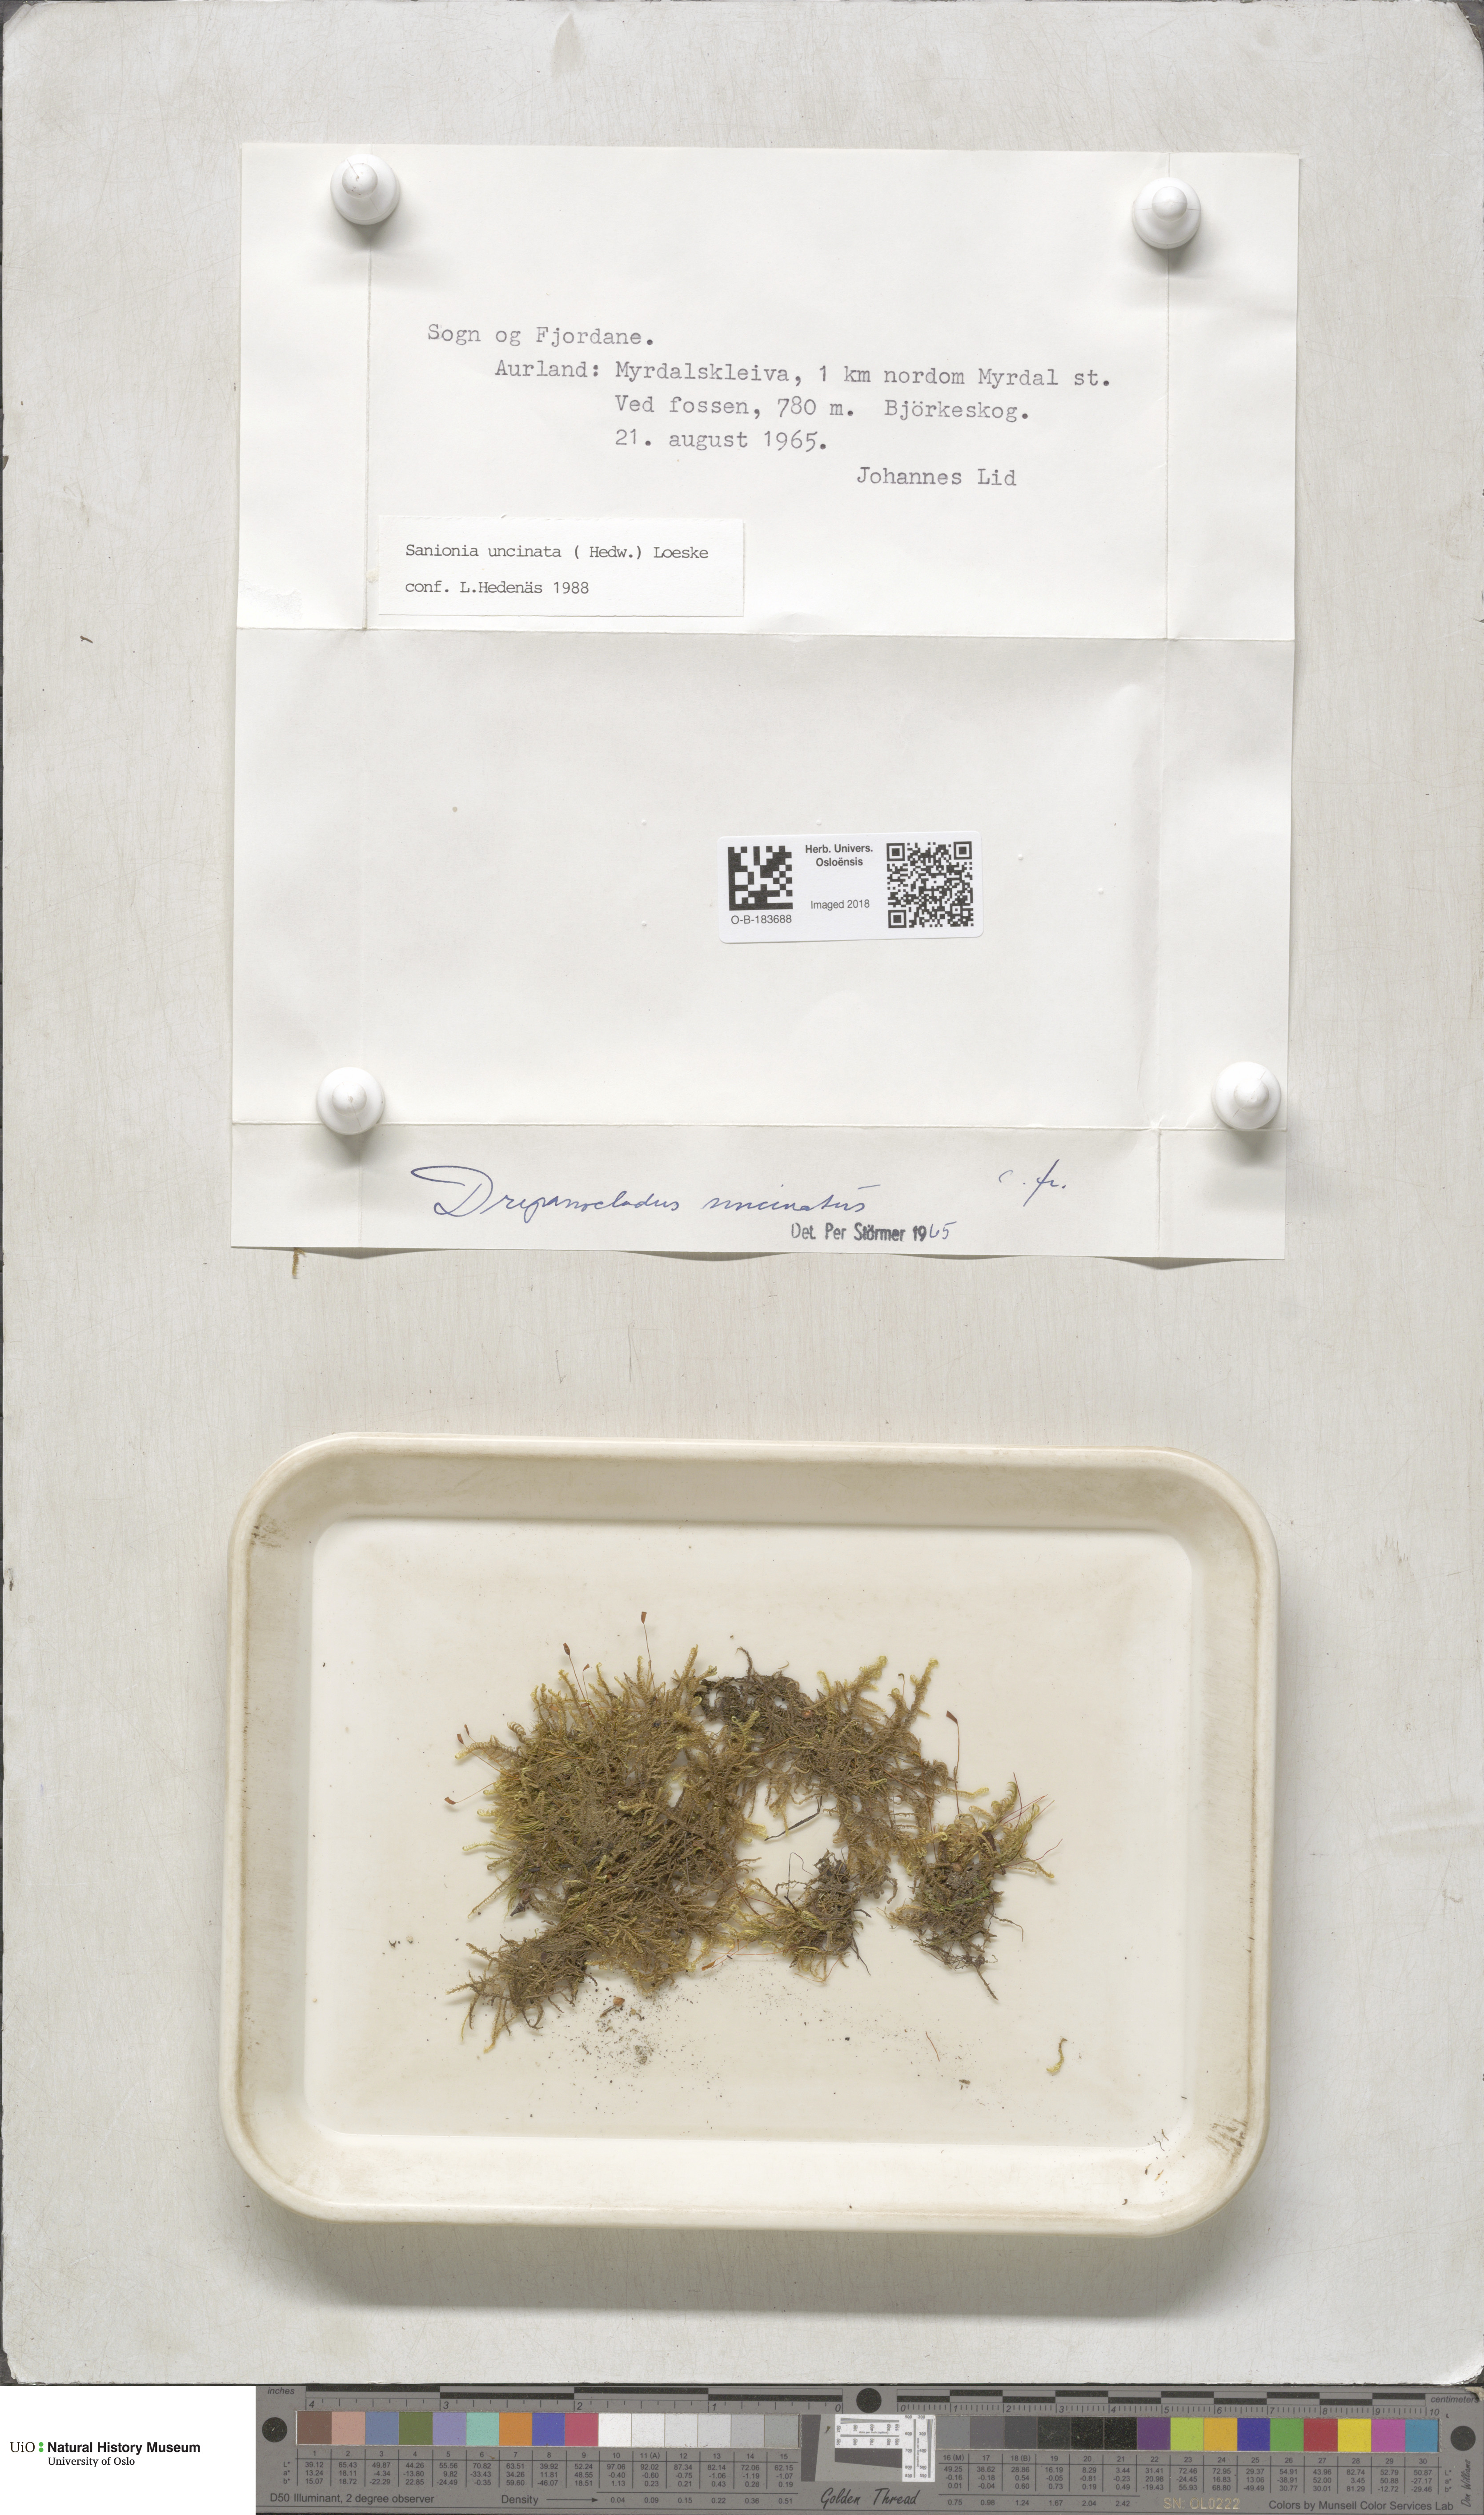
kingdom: Plantae
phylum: Bryophyta
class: Bryopsida
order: Hypnales
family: Scorpidiaceae
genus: Sanionia
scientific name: Sanionia uncinata
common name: Sickle moss
